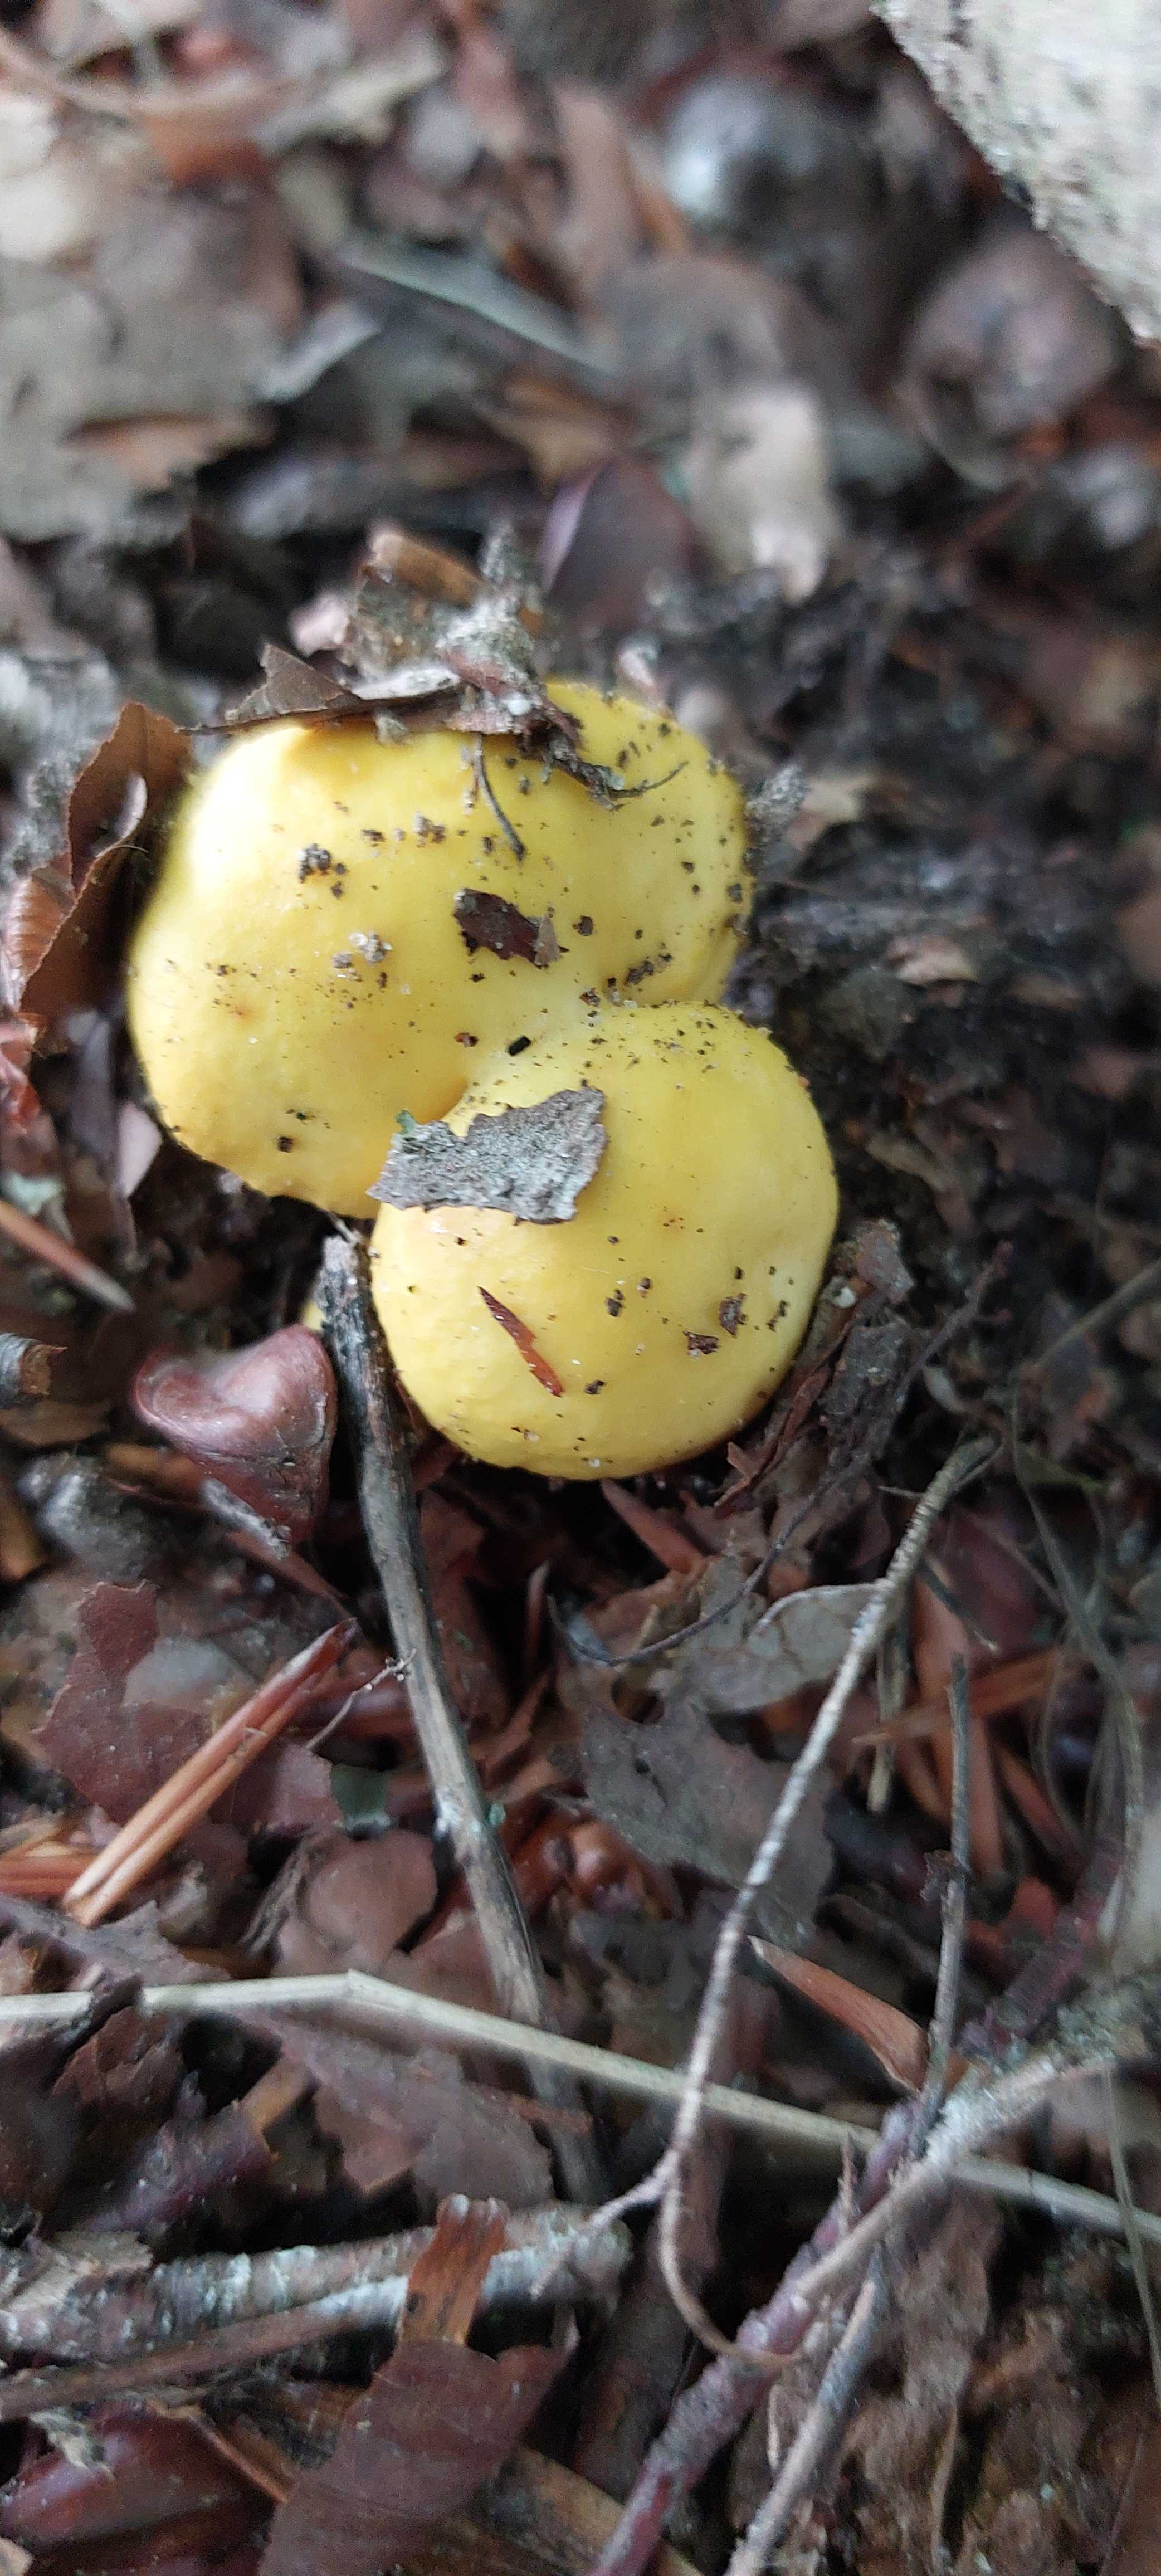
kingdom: Fungi
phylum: Basidiomycota
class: Agaricomycetes
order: Russulales
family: Russulaceae
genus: Russula
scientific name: Russula ochroleuca
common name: okkergul skørhat
